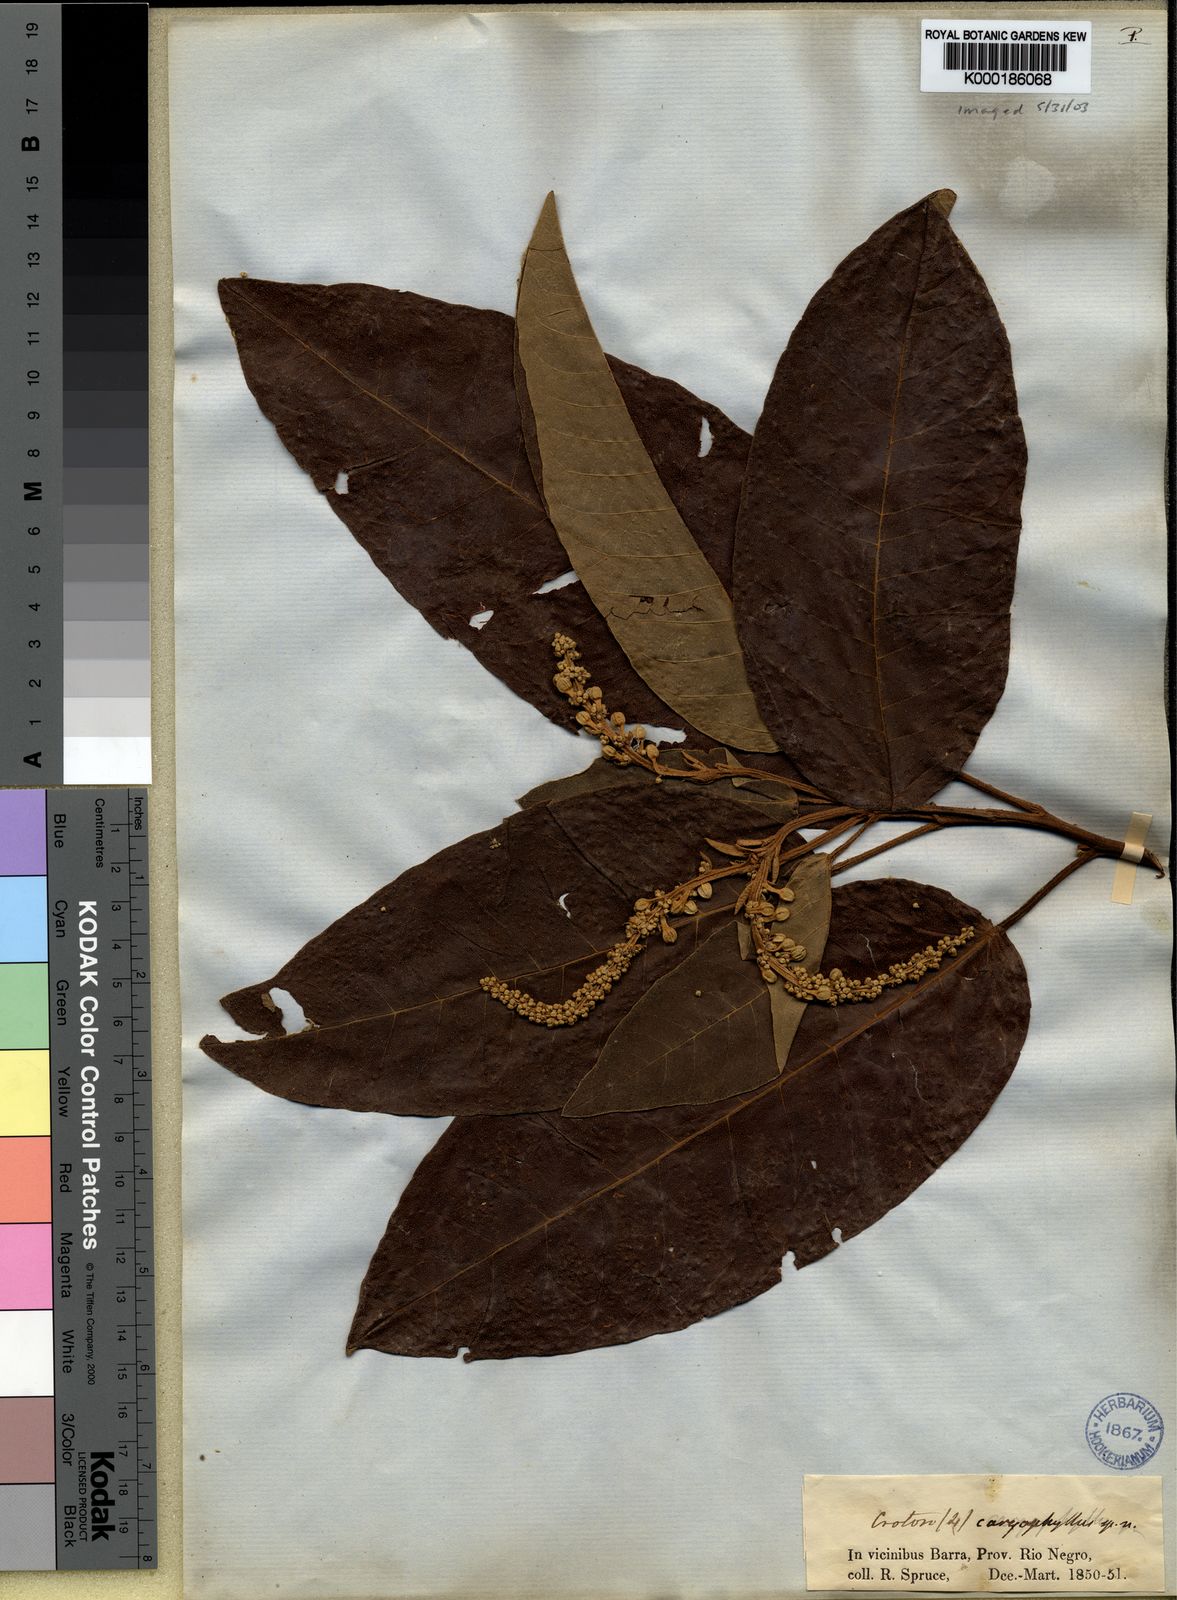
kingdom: Plantae
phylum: Tracheophyta
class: Magnoliopsida
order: Malpighiales
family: Euphorbiaceae
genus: Croton
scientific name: Croton matourensis
